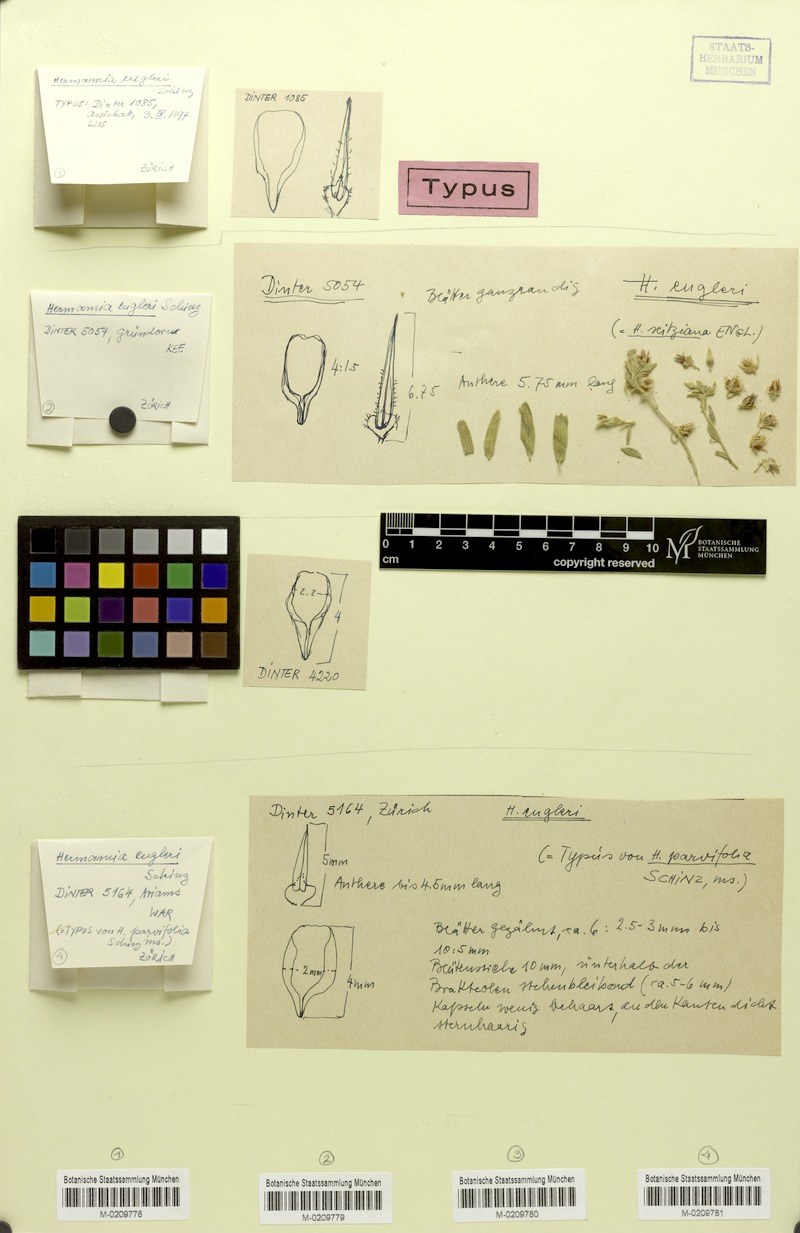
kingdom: Plantae
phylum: Tracheophyta
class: Magnoliopsida
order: Malvales
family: Malvaceae
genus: Hermannia
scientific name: Hermannia engleri
